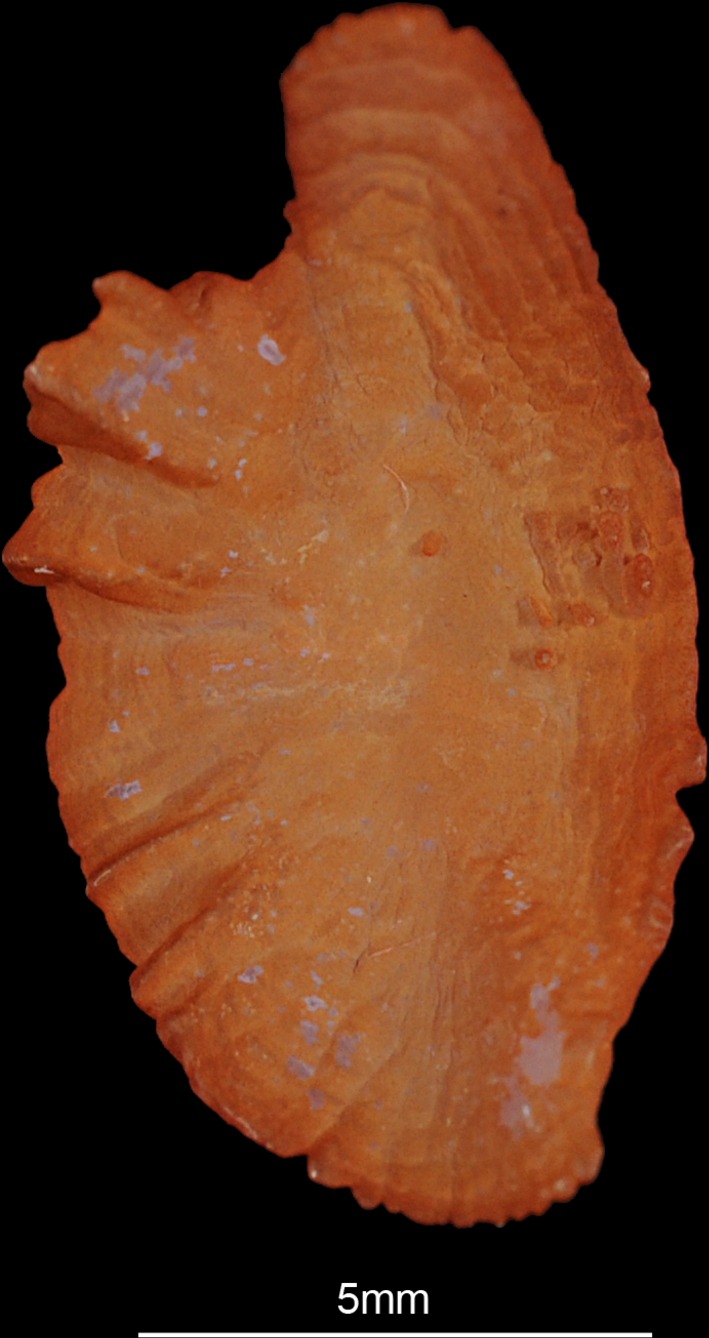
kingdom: Animalia
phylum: Chordata
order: Perciformes
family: Lutjanidae
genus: Lutjanus
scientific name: Lutjanus argentimaculatus
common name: Mangrove red snapper
